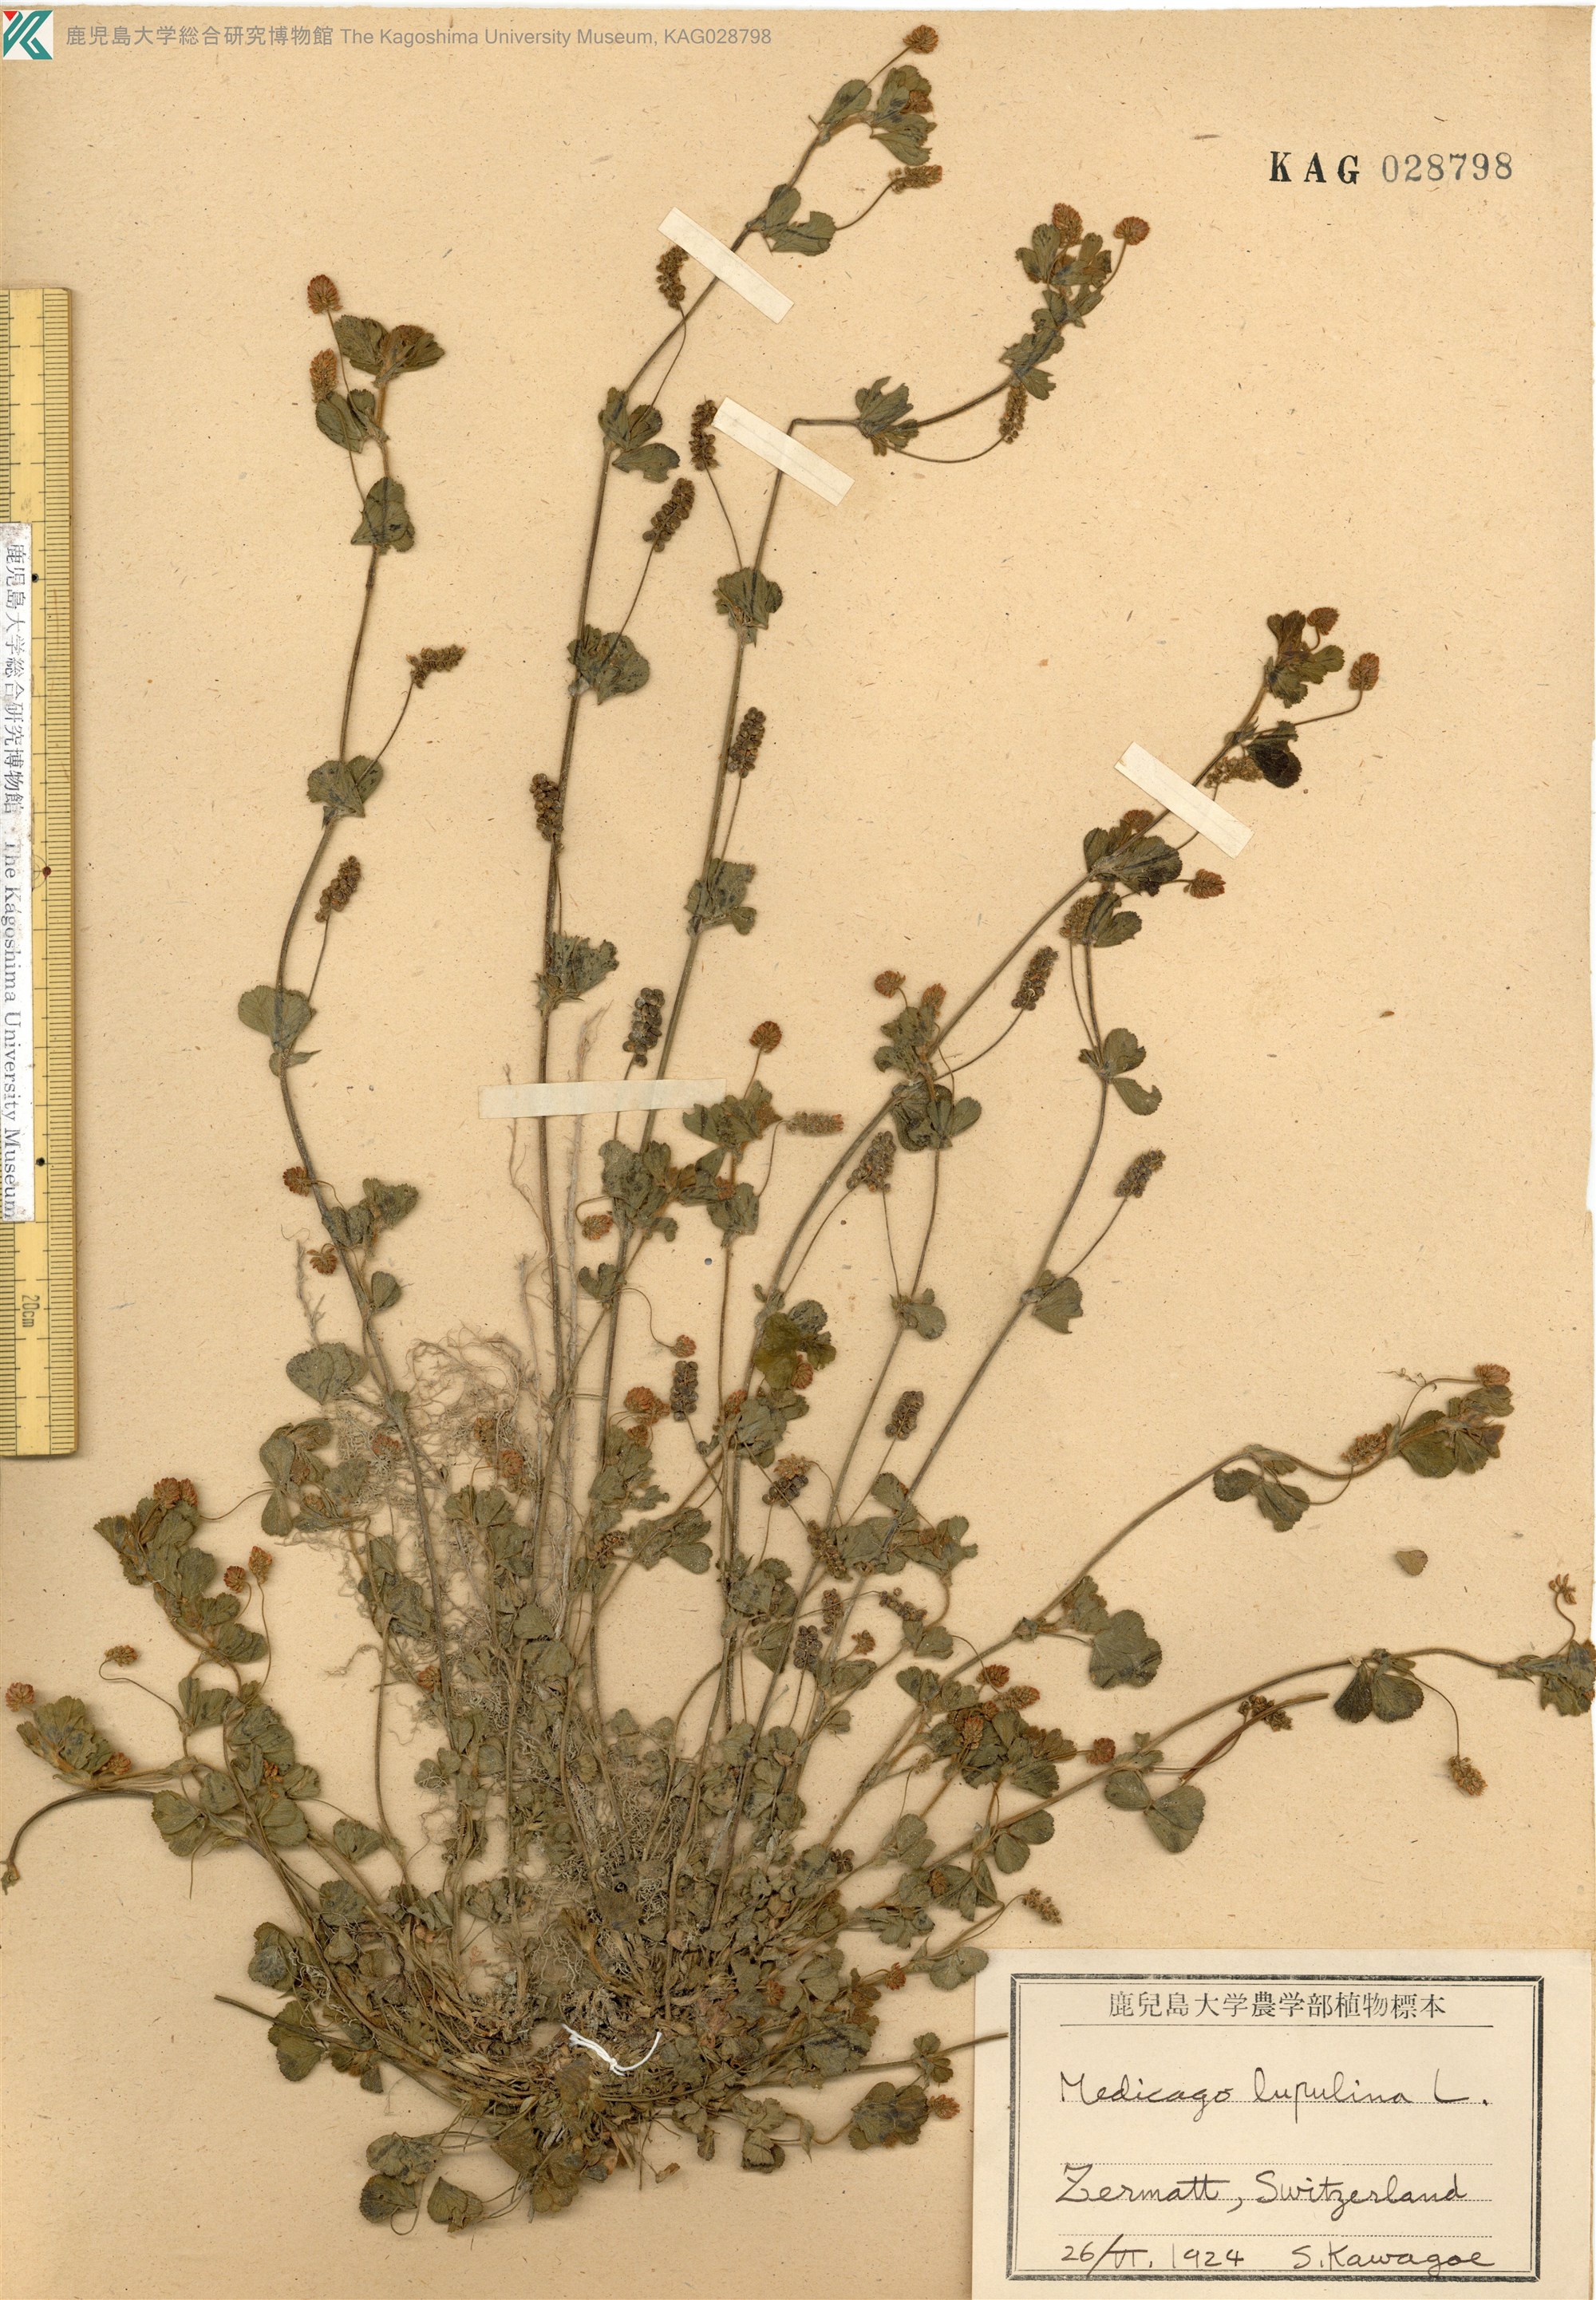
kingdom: Plantae
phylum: Tracheophyta
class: Magnoliopsida
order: Fabales
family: Fabaceae
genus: Medicago
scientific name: Medicago lupulina
